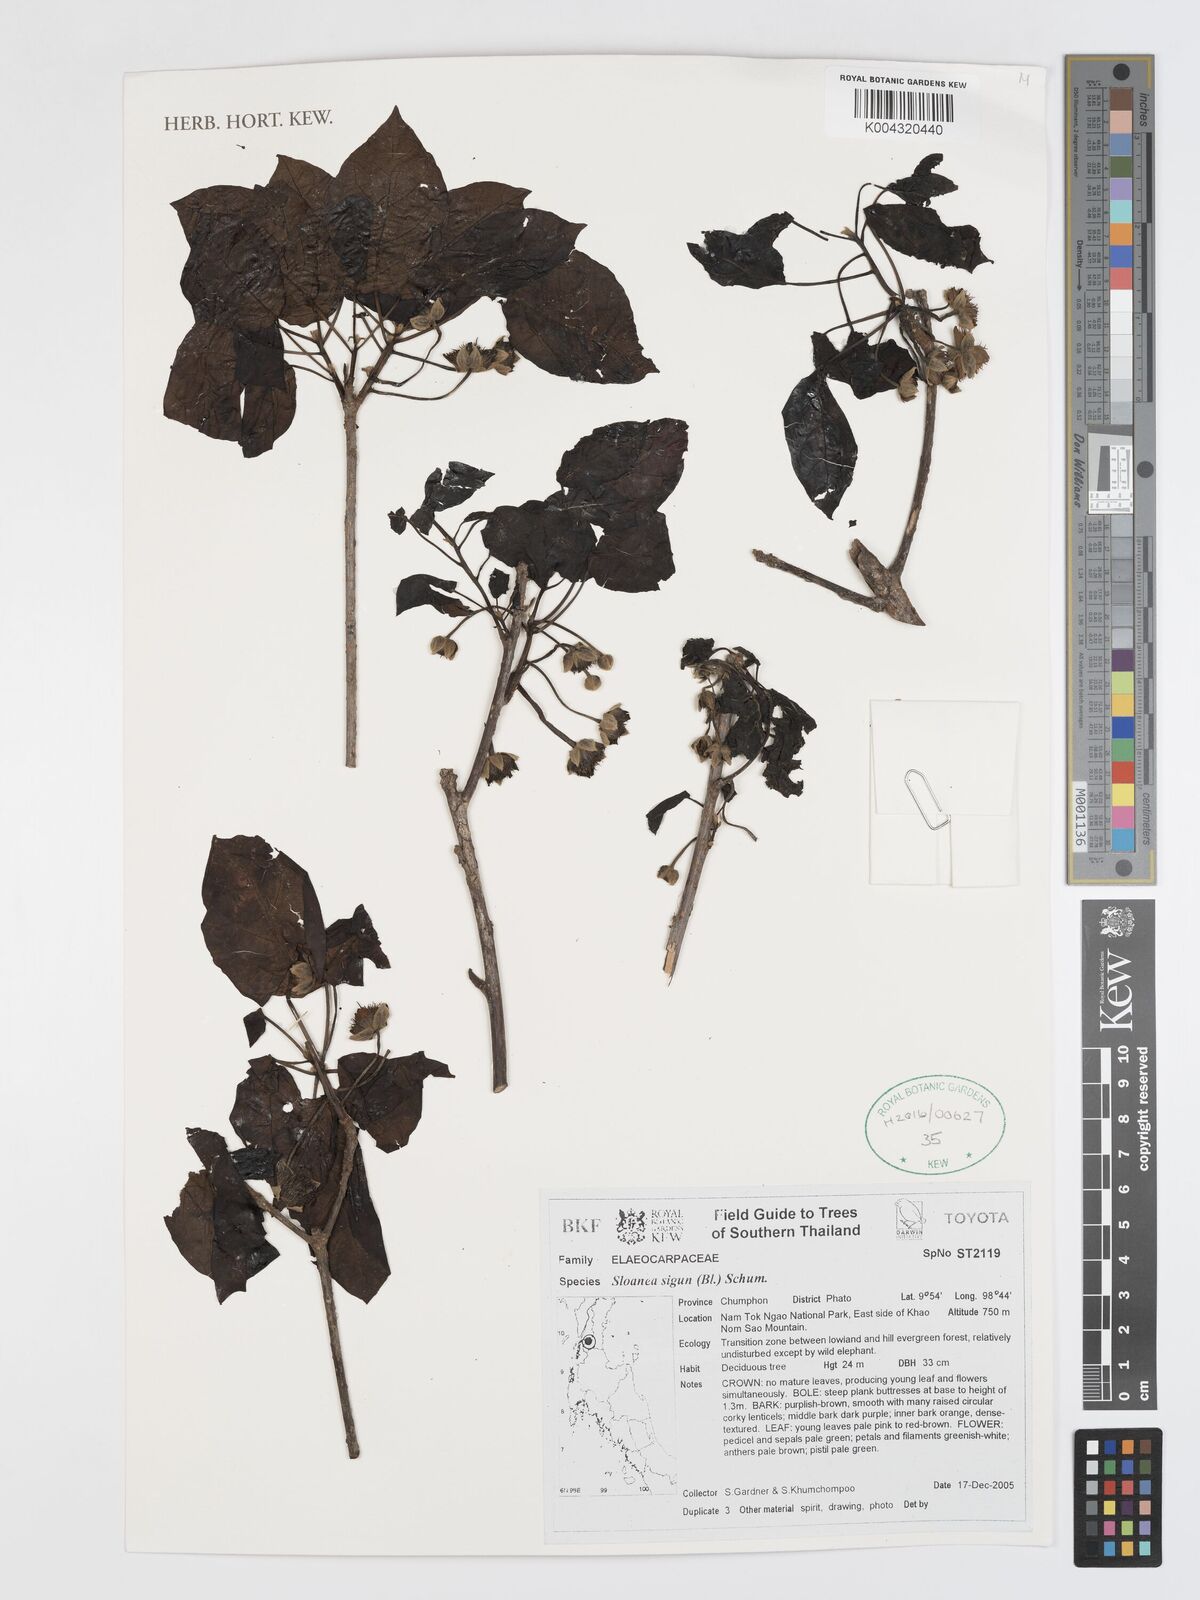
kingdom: Plantae
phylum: Tracheophyta
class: Magnoliopsida
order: Oxalidales
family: Elaeocarpaceae
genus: Sloanea
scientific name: Sloanea sigun
